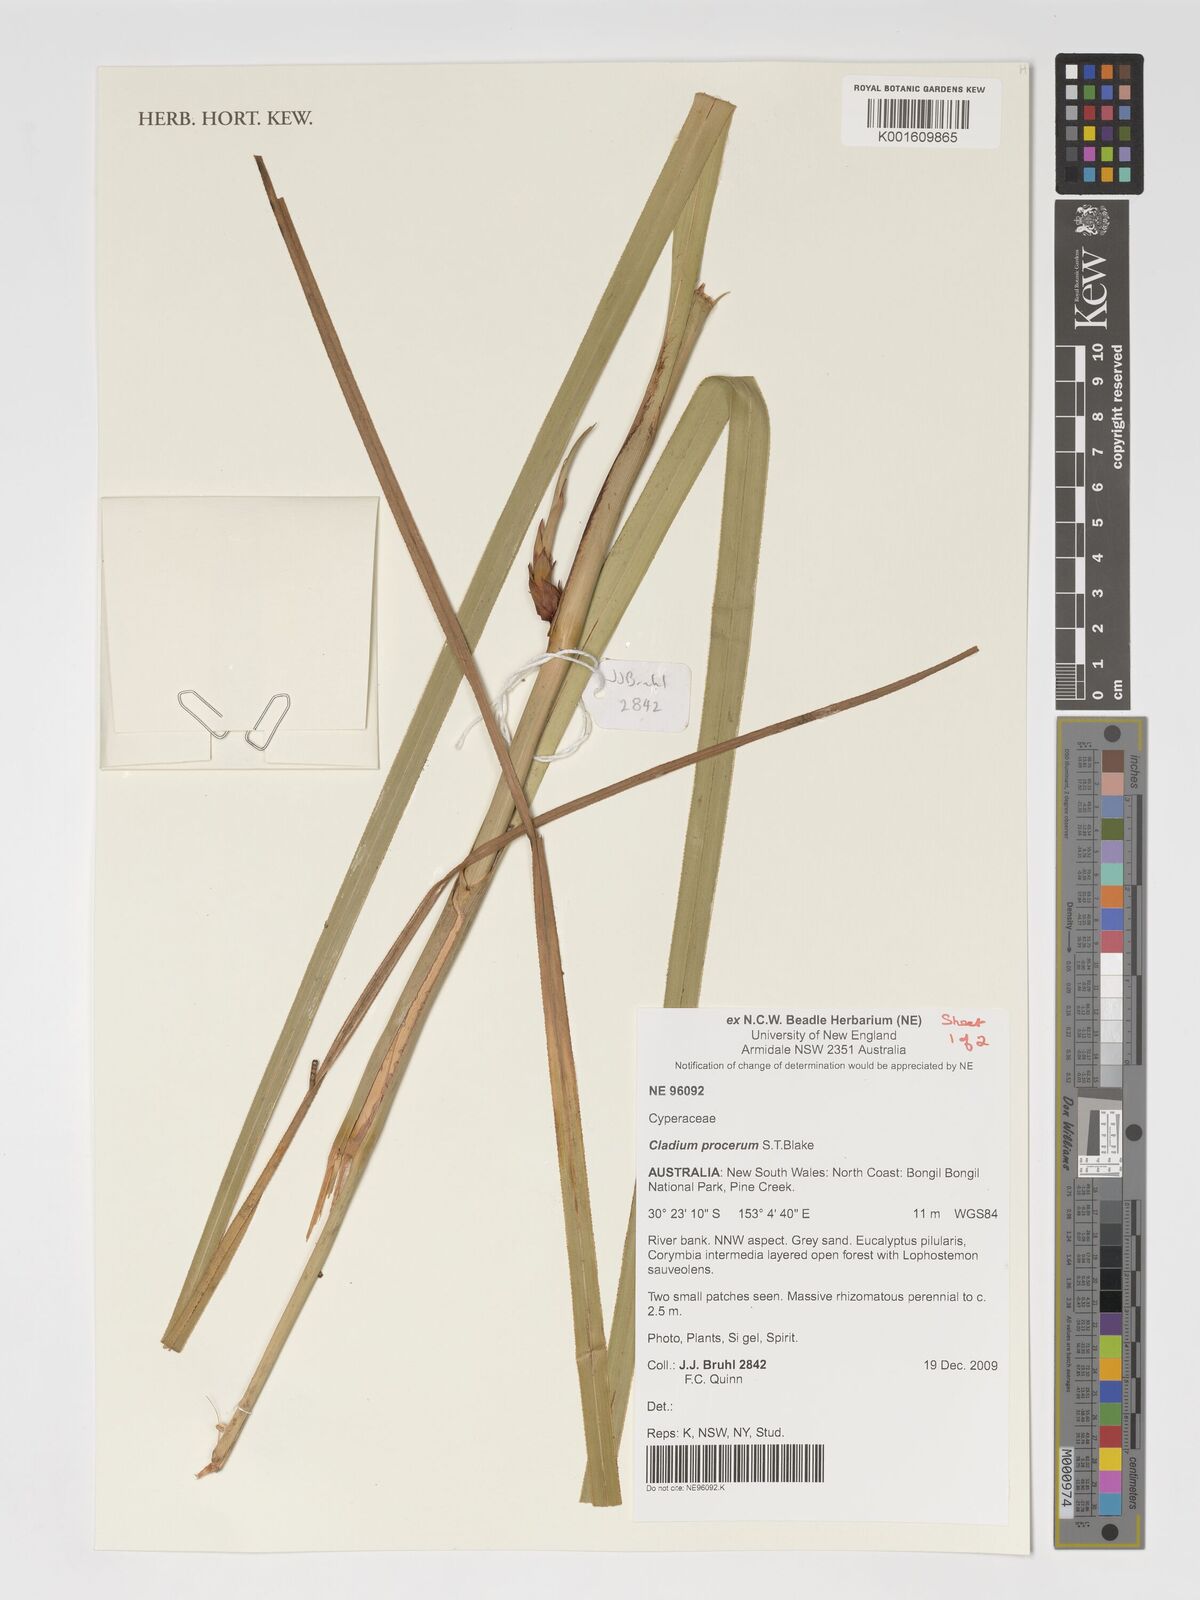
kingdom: Plantae
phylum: Tracheophyta
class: Liliopsida
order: Poales
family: Cyperaceae
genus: Cladium
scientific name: Cladium mariscus
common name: Great fen-sedge
